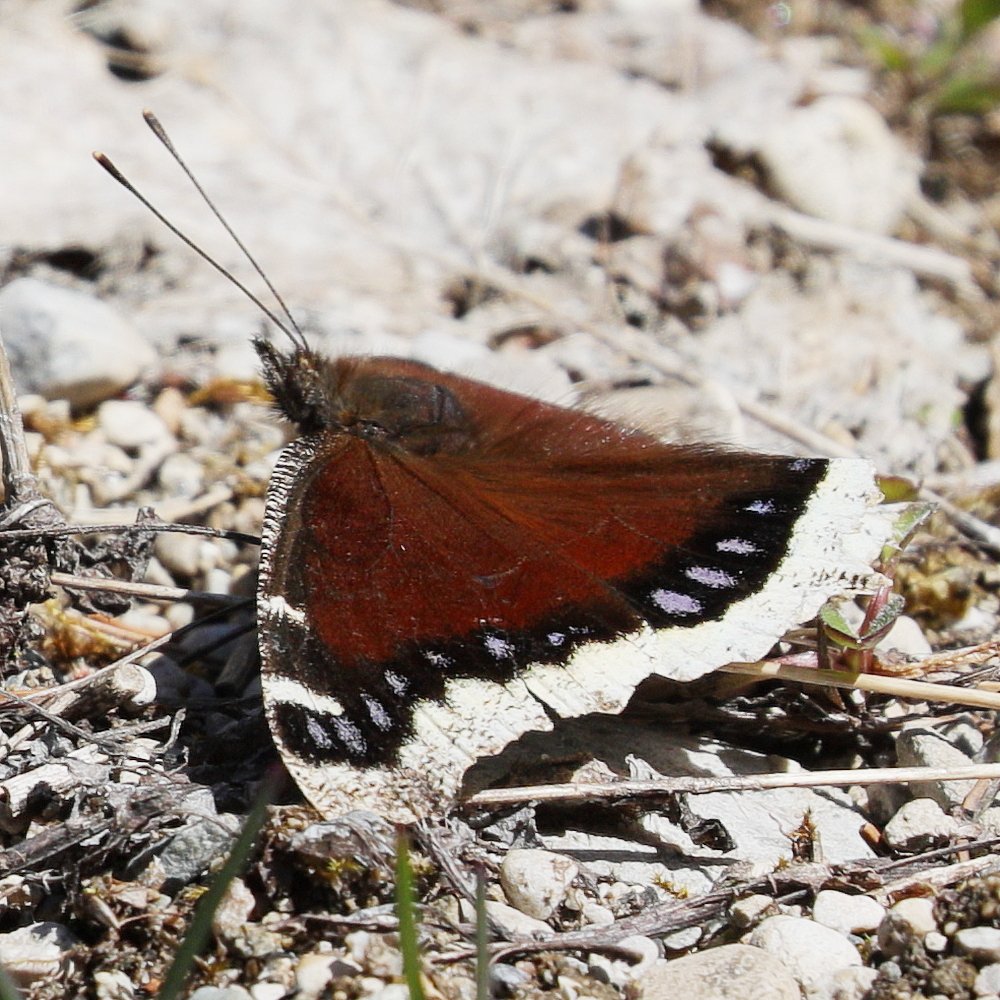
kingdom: Animalia
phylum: Arthropoda
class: Insecta
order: Lepidoptera
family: Nymphalidae
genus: Nymphalis
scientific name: Nymphalis antiopa
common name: Mourning Cloak
